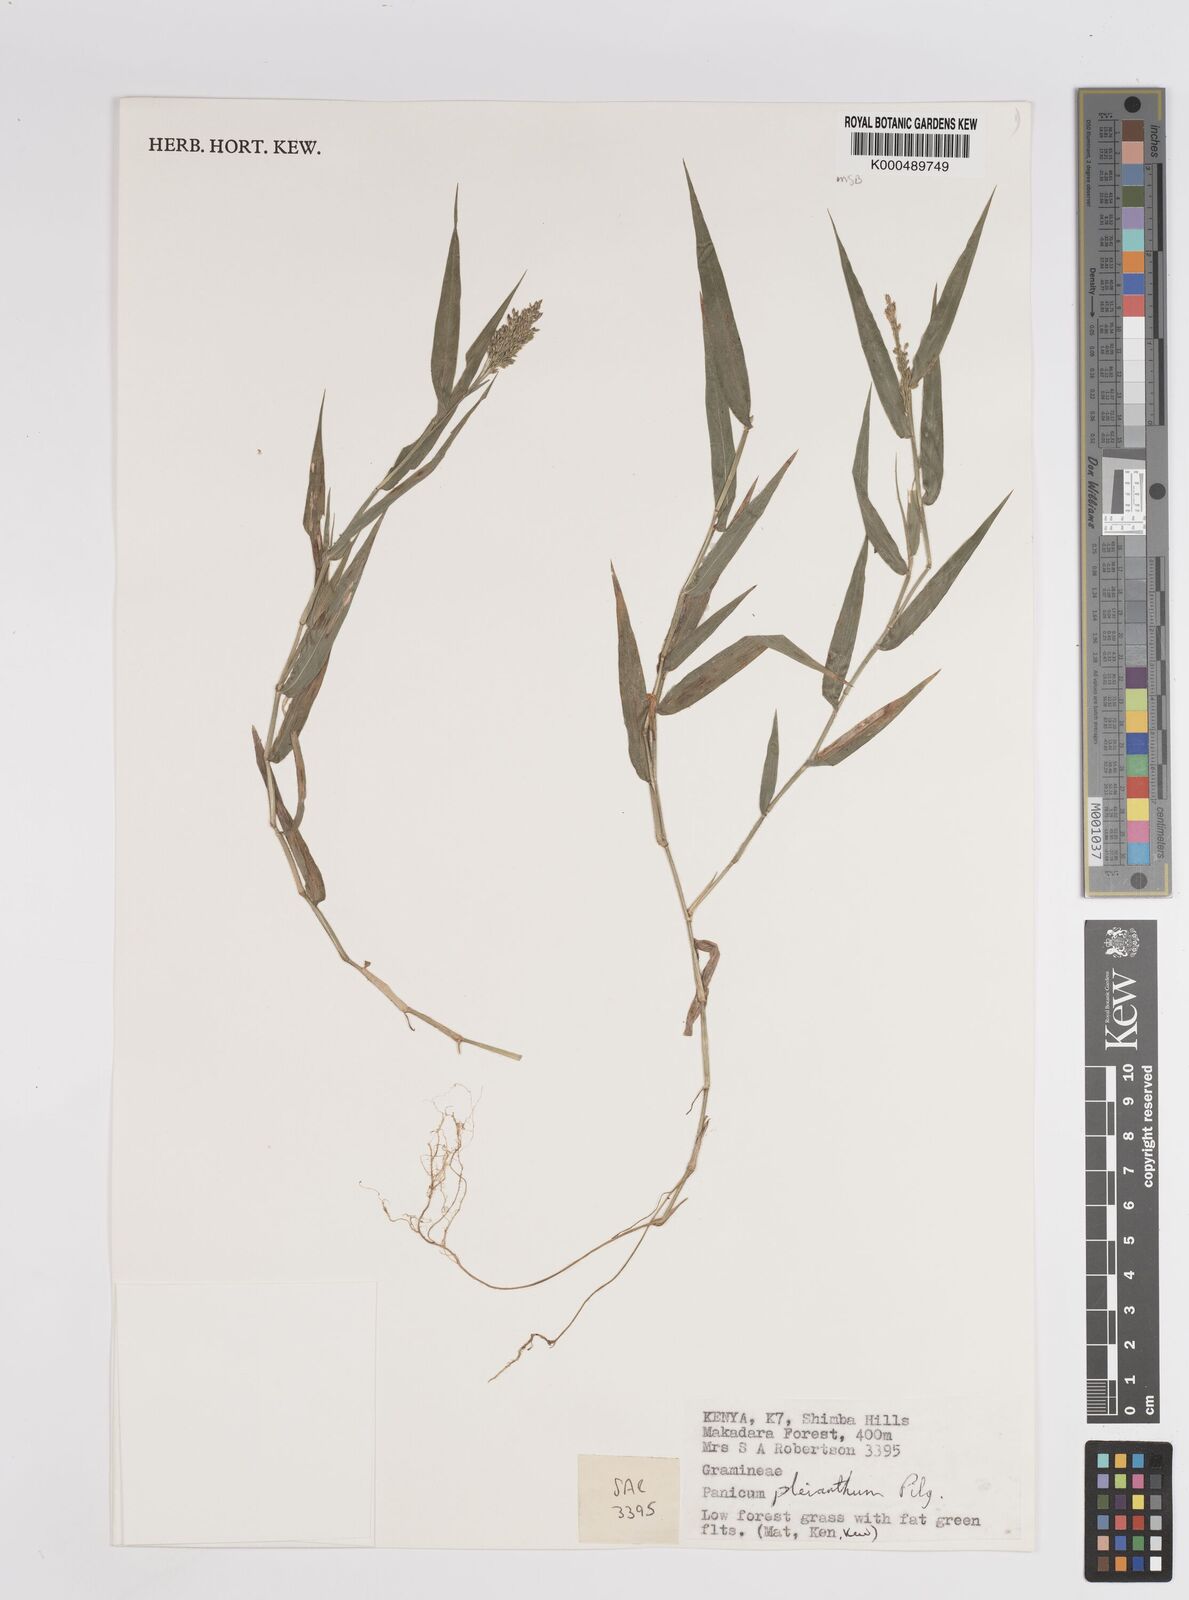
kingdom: Plantae
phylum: Tracheophyta
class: Liliopsida
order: Poales
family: Poaceae
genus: Panicum
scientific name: Panicum pleianthum
